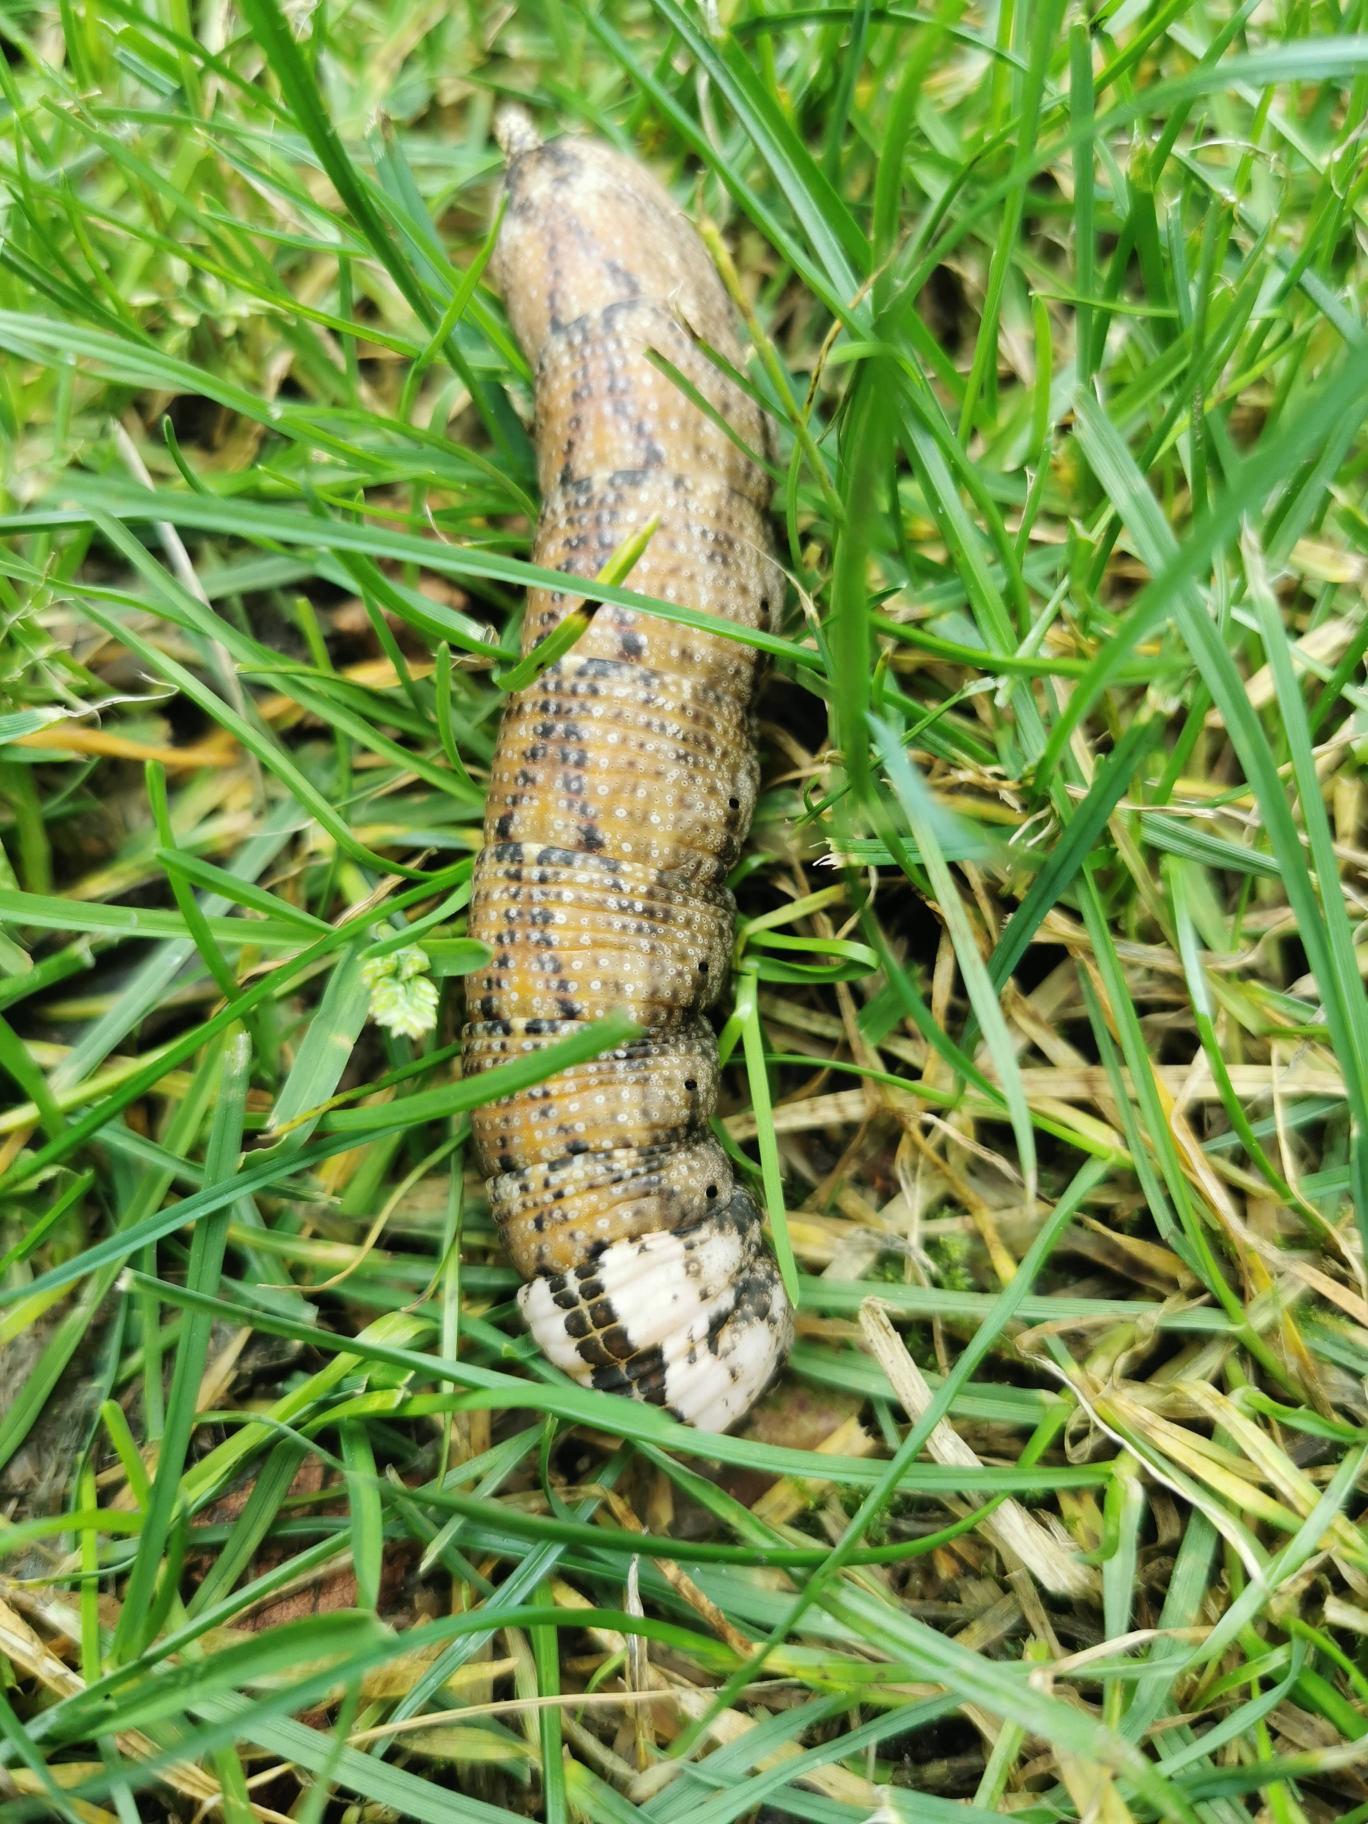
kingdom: Animalia
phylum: Arthropoda
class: Insecta
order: Lepidoptera
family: Sphingidae
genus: Acherontia
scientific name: Acherontia atropos
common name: Dødningehoved
